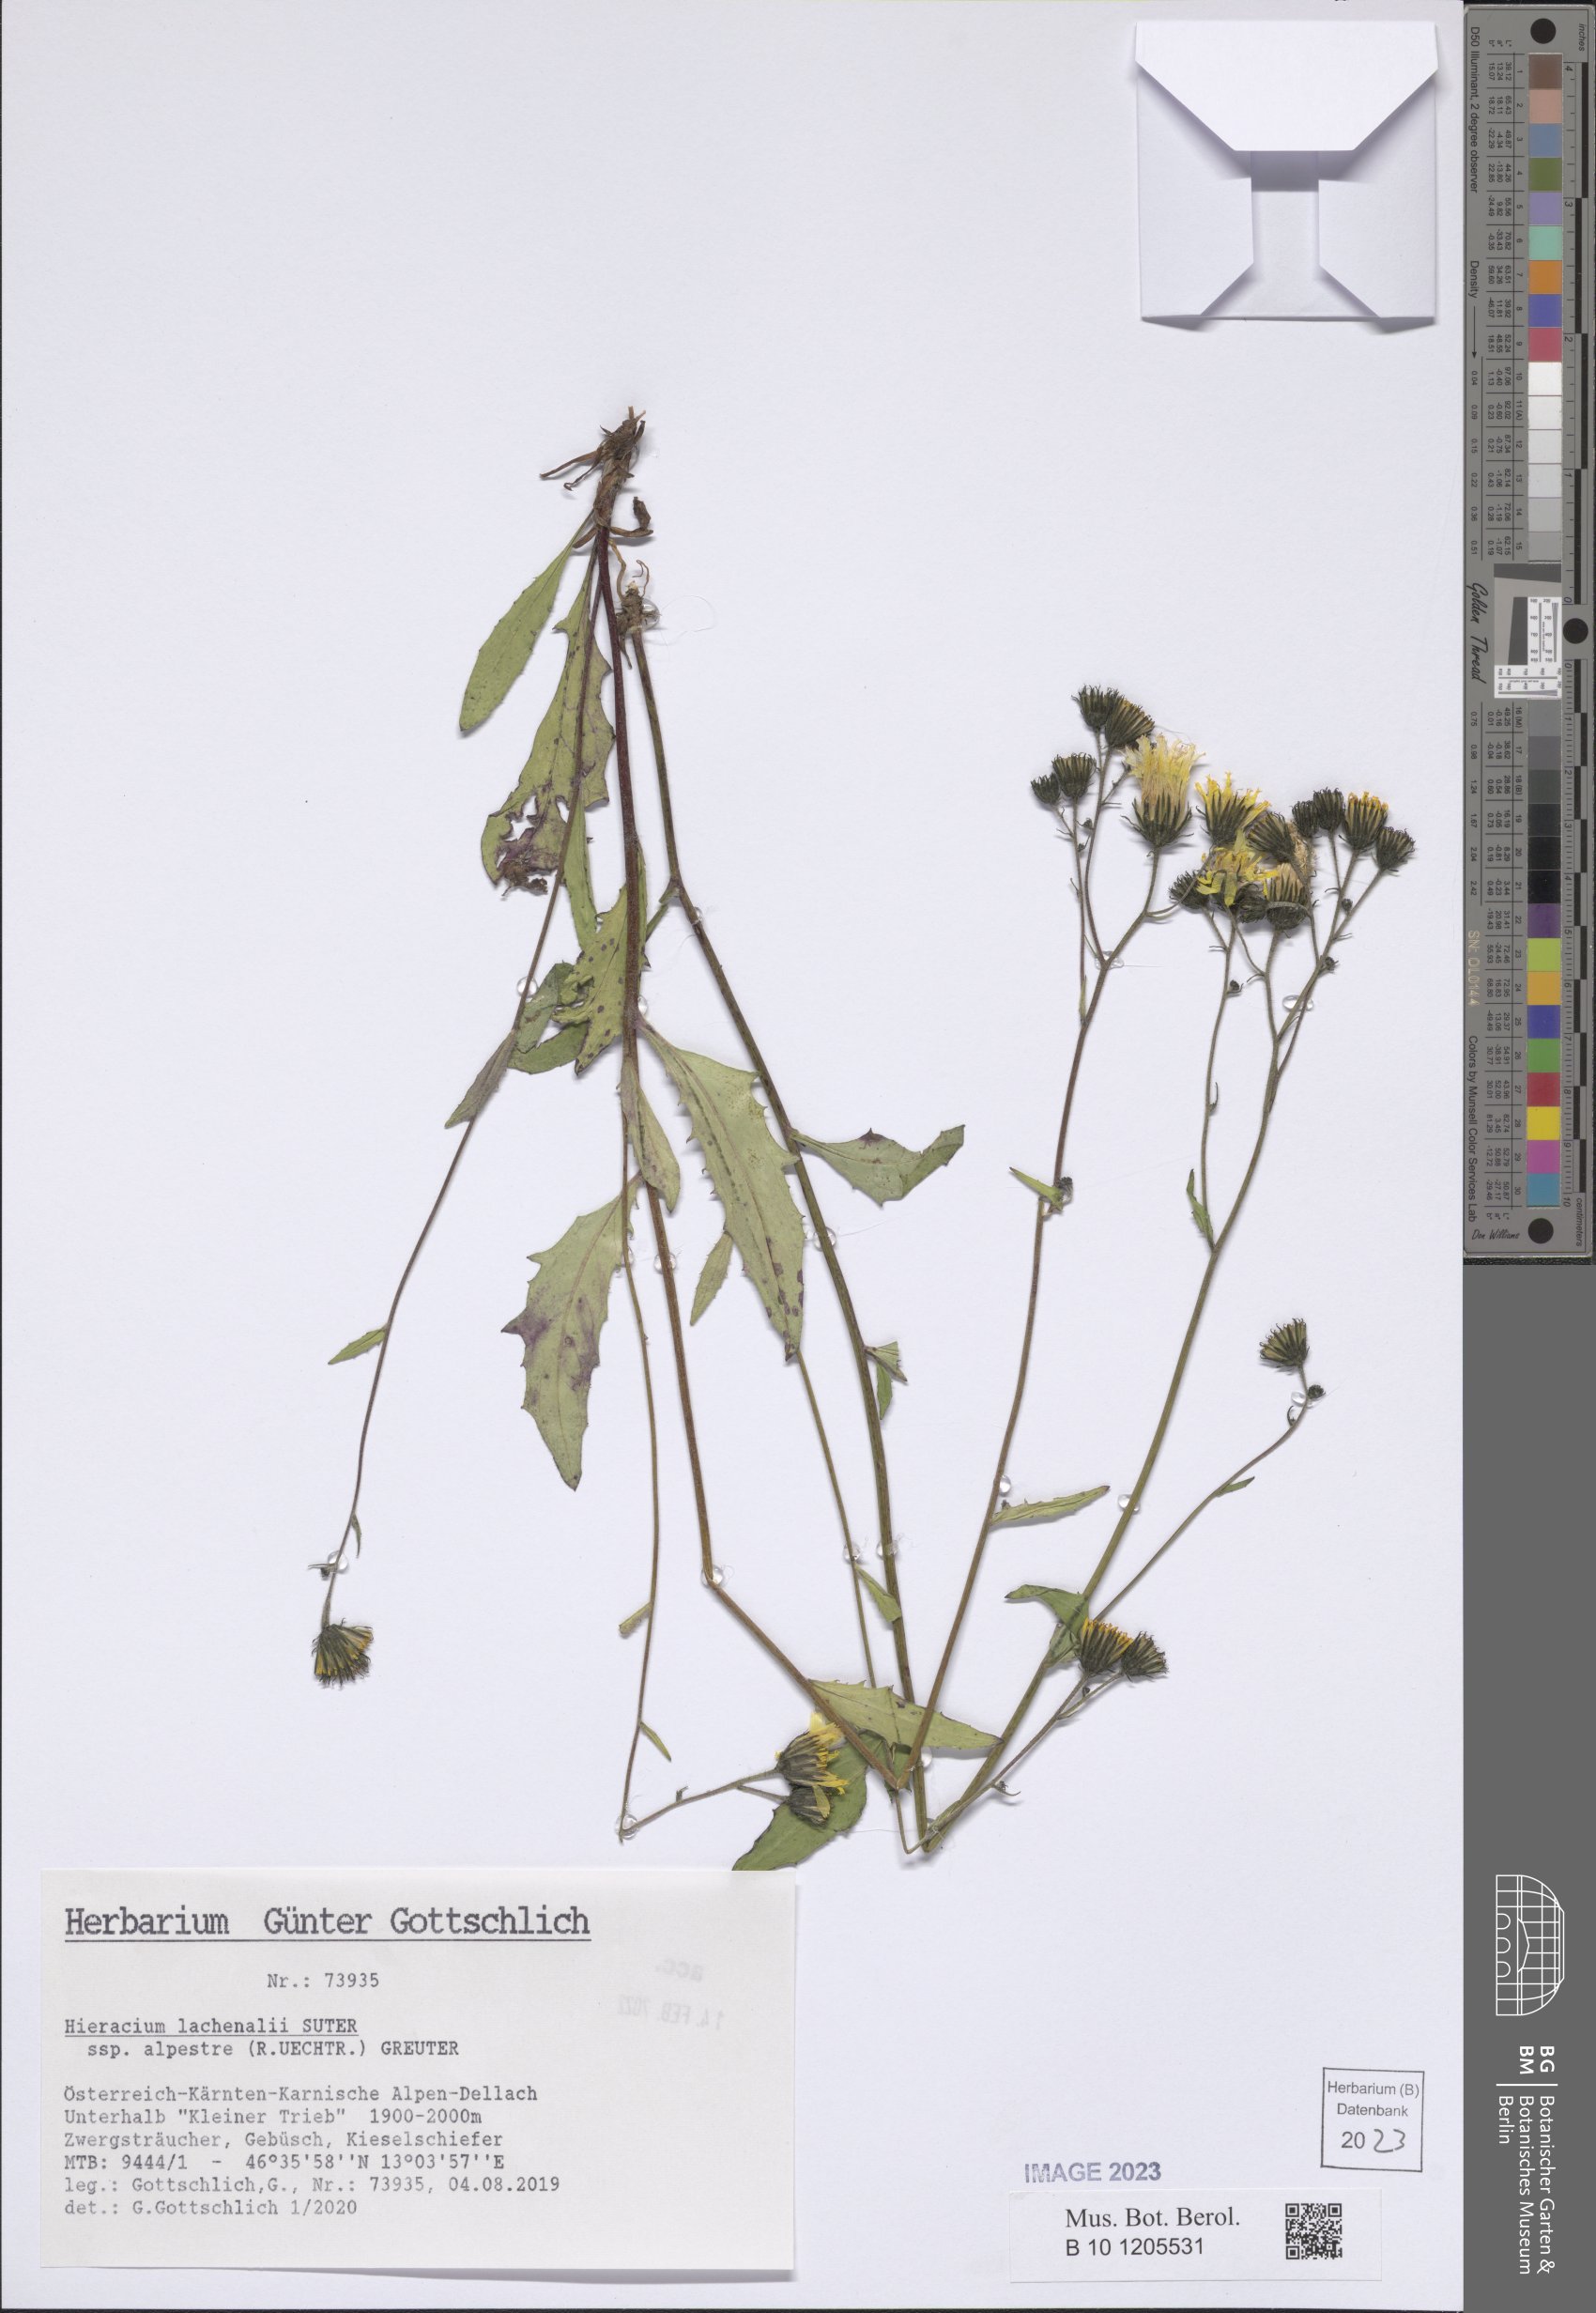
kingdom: Plantae
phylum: Tracheophyta
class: Magnoliopsida
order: Asterales
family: Asteraceae
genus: Hieracium
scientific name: Hieracium lachenalii
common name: Common hawkweed
